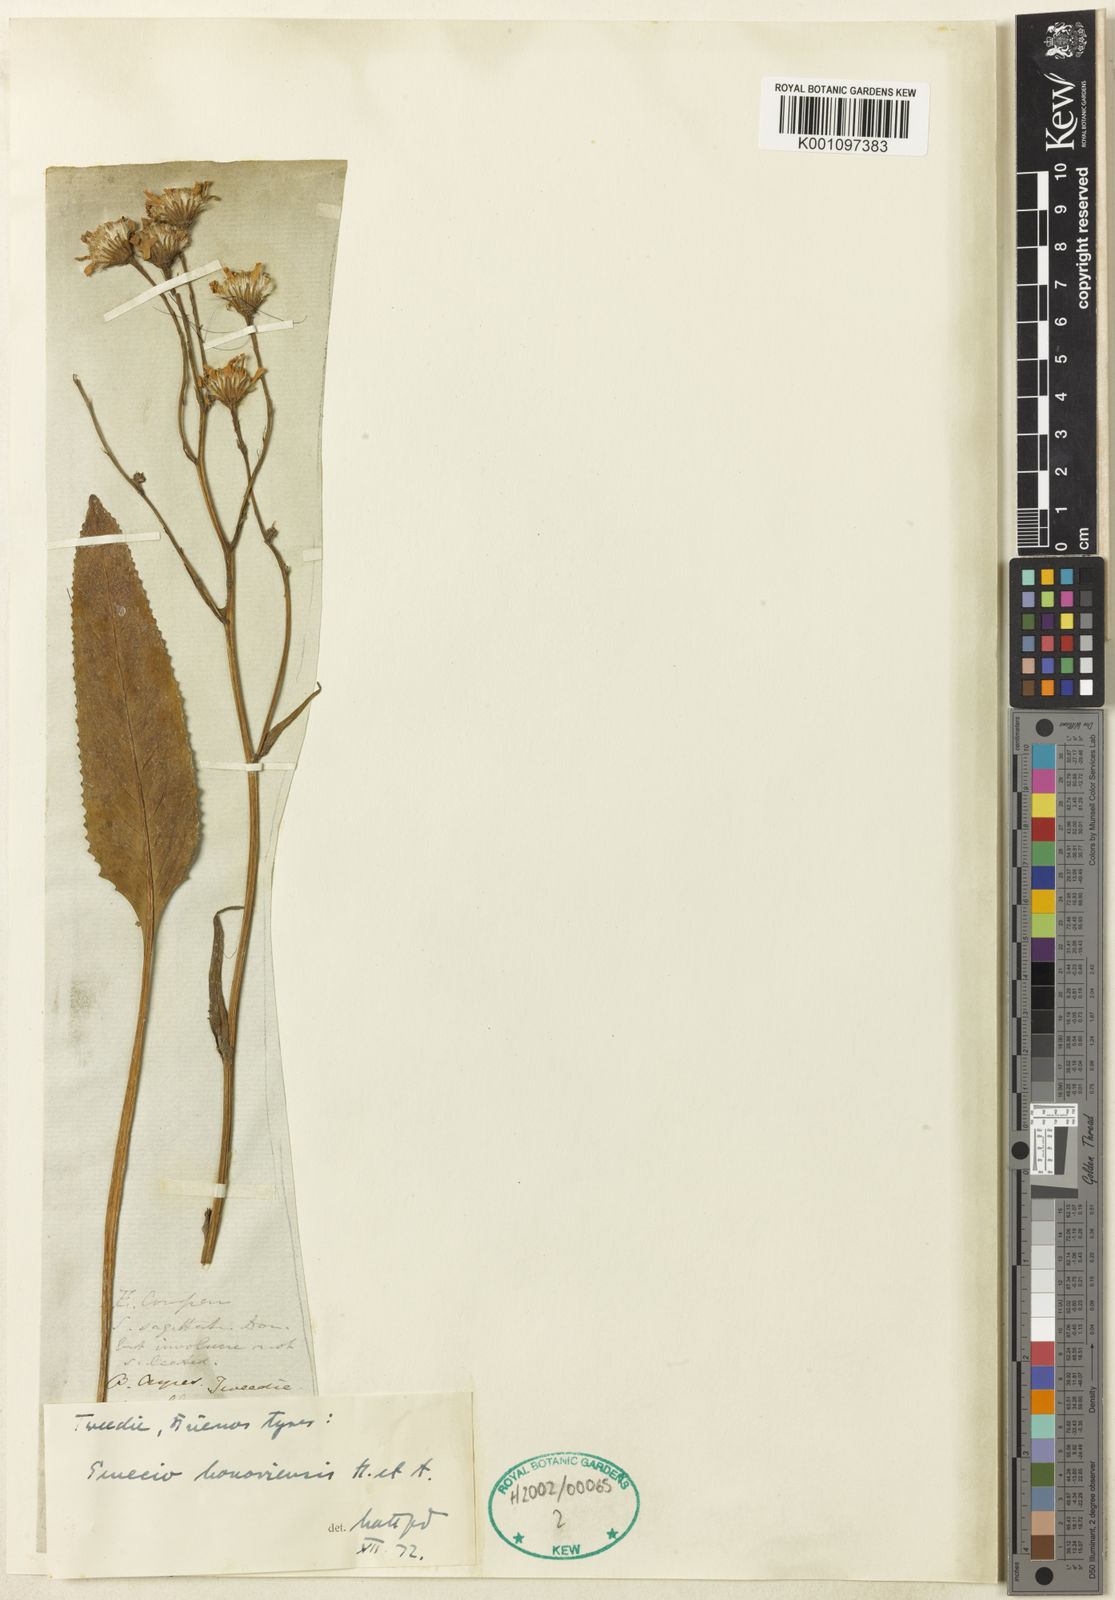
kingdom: Plantae
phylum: Tracheophyta
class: Magnoliopsida
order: Asterales
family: Asteraceae
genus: Senecio
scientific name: Senecio bonariensis
